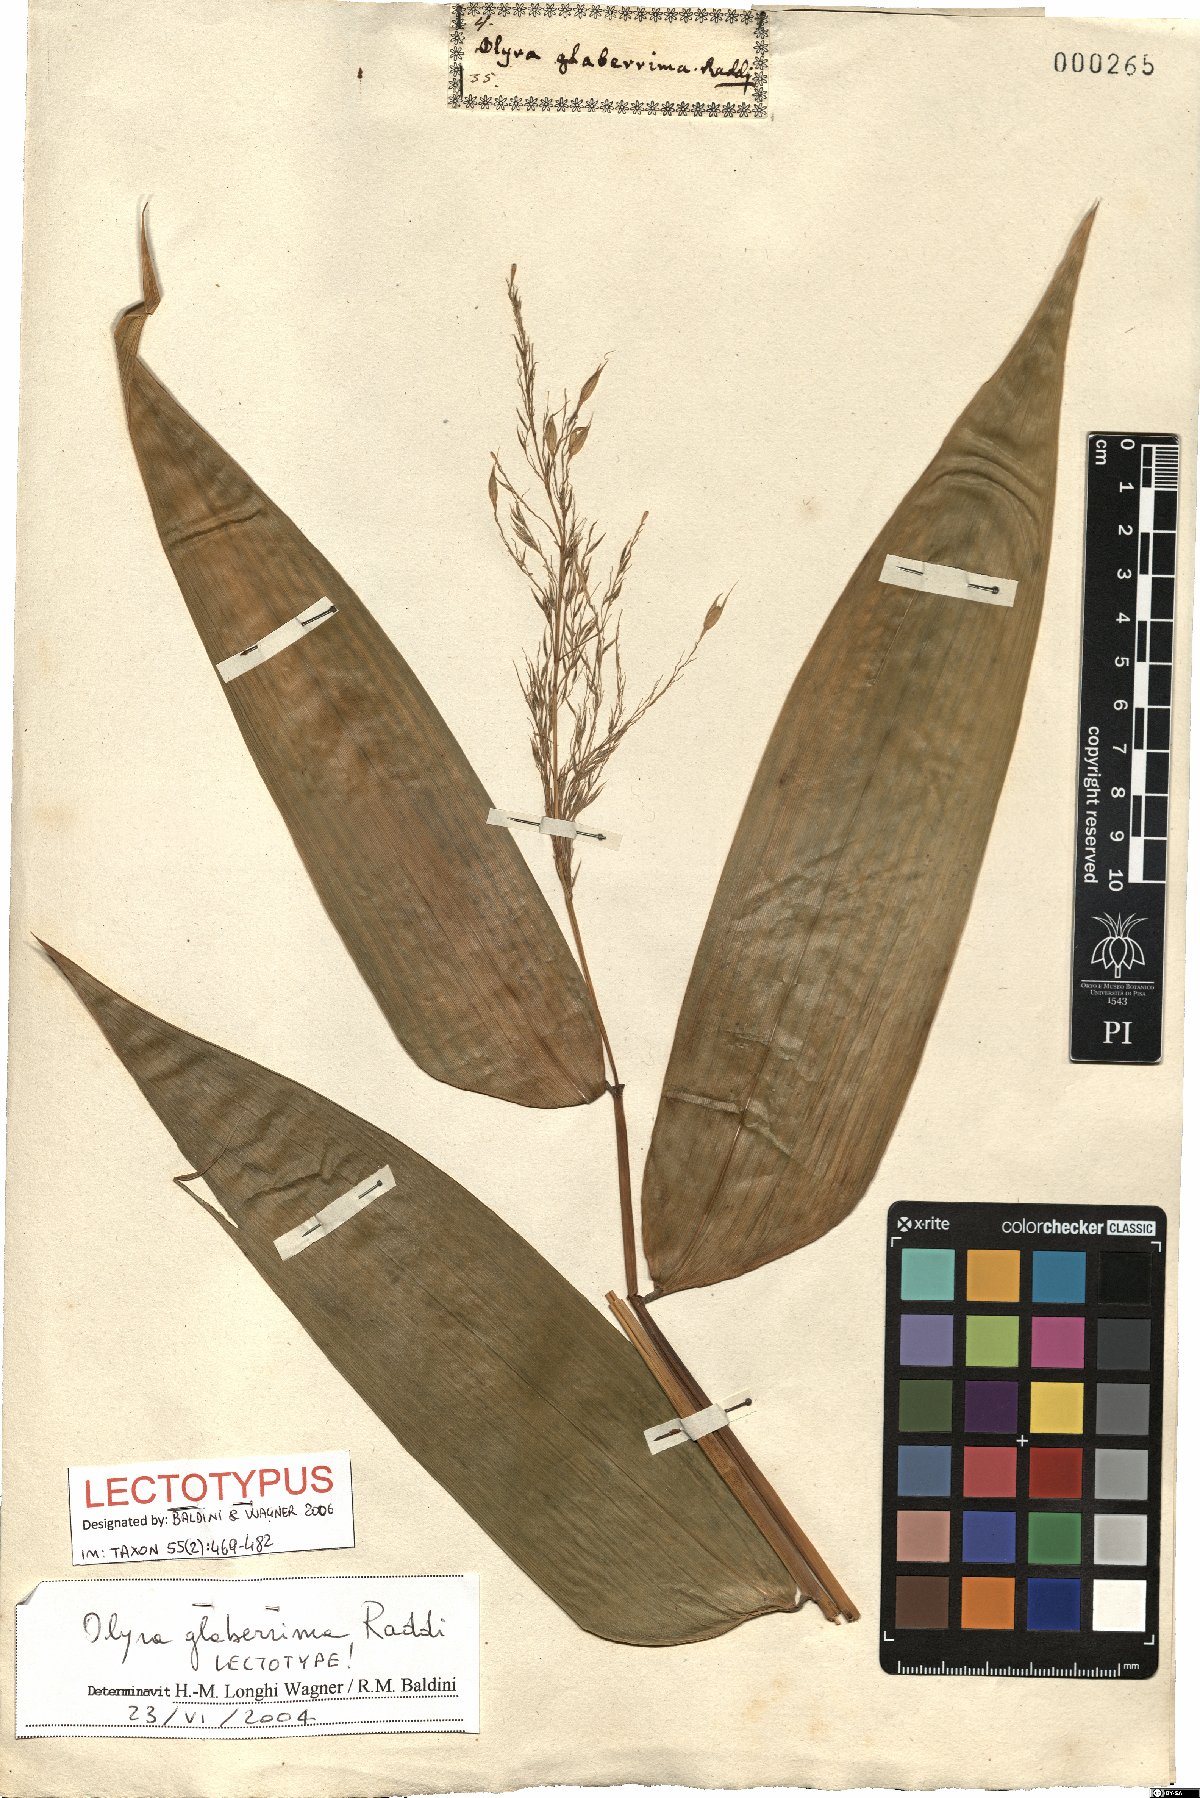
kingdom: Plantae
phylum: Tracheophyta
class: Liliopsida
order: Poales
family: Poaceae
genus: Olyra
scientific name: Olyra glaberrima
